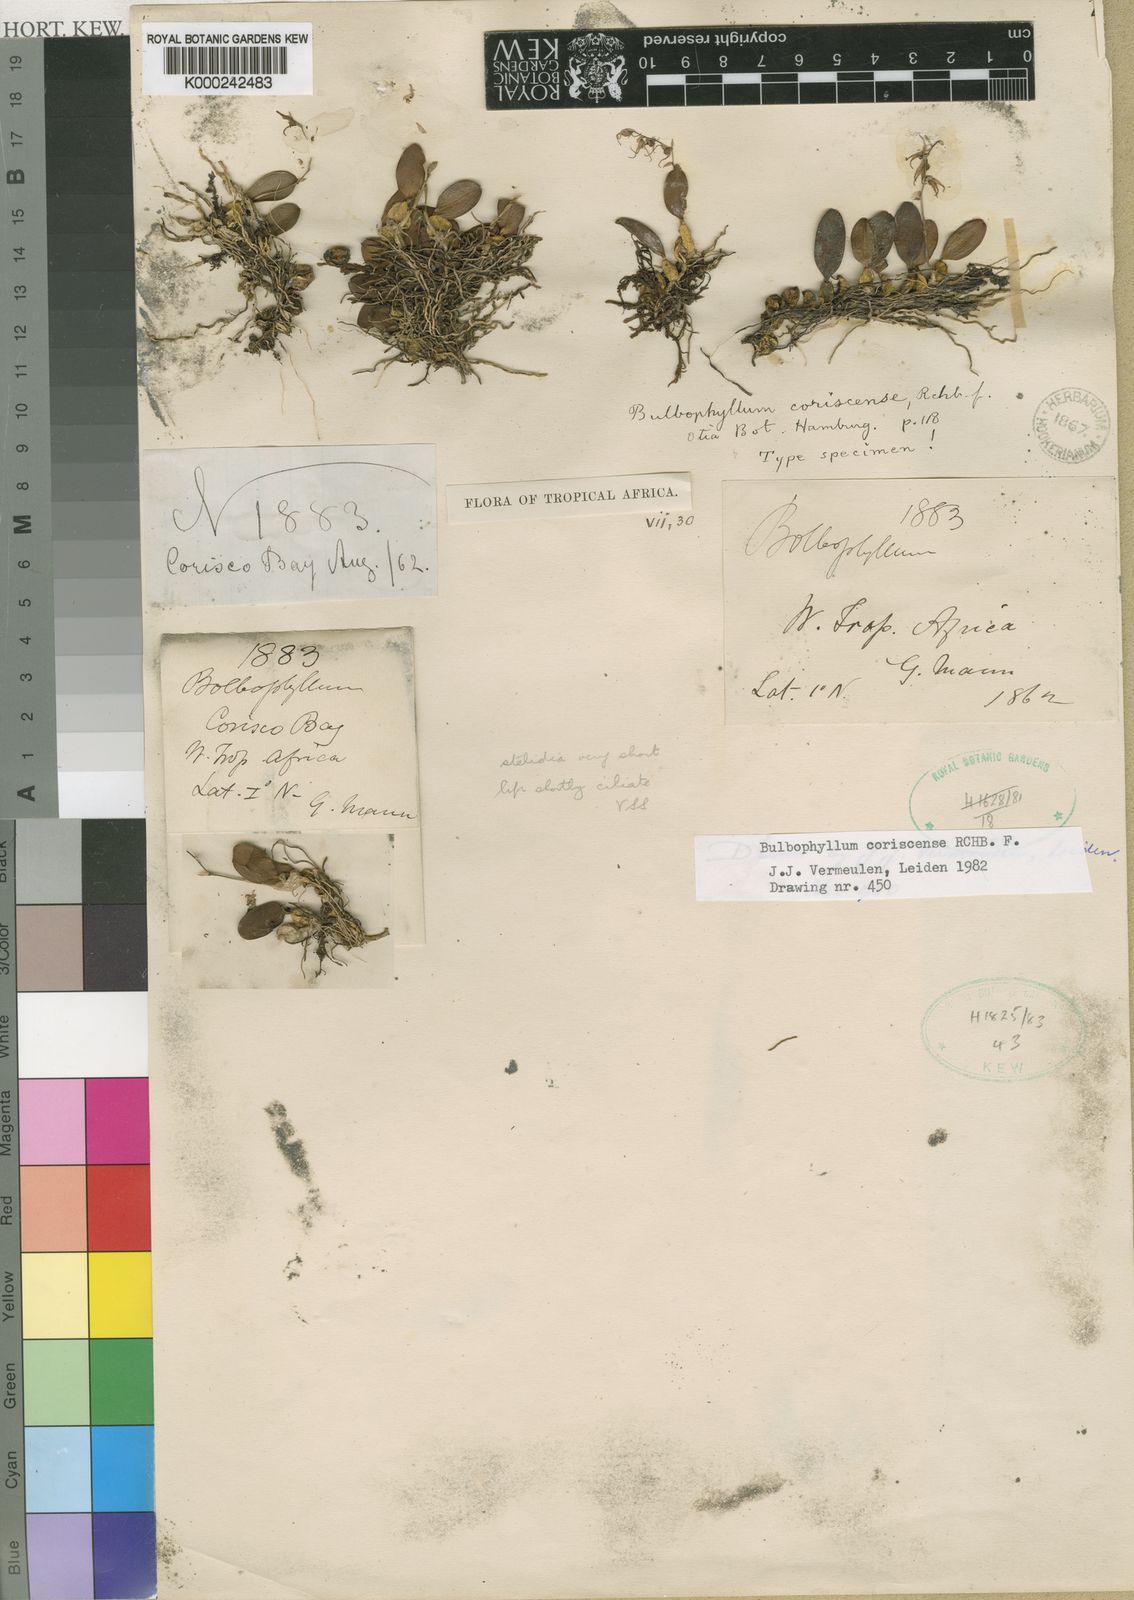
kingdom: Plantae
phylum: Tracheophyta
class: Liliopsida
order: Asparagales
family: Orchidaceae
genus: Bulbophyllum
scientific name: Bulbophyllum cocoinum
